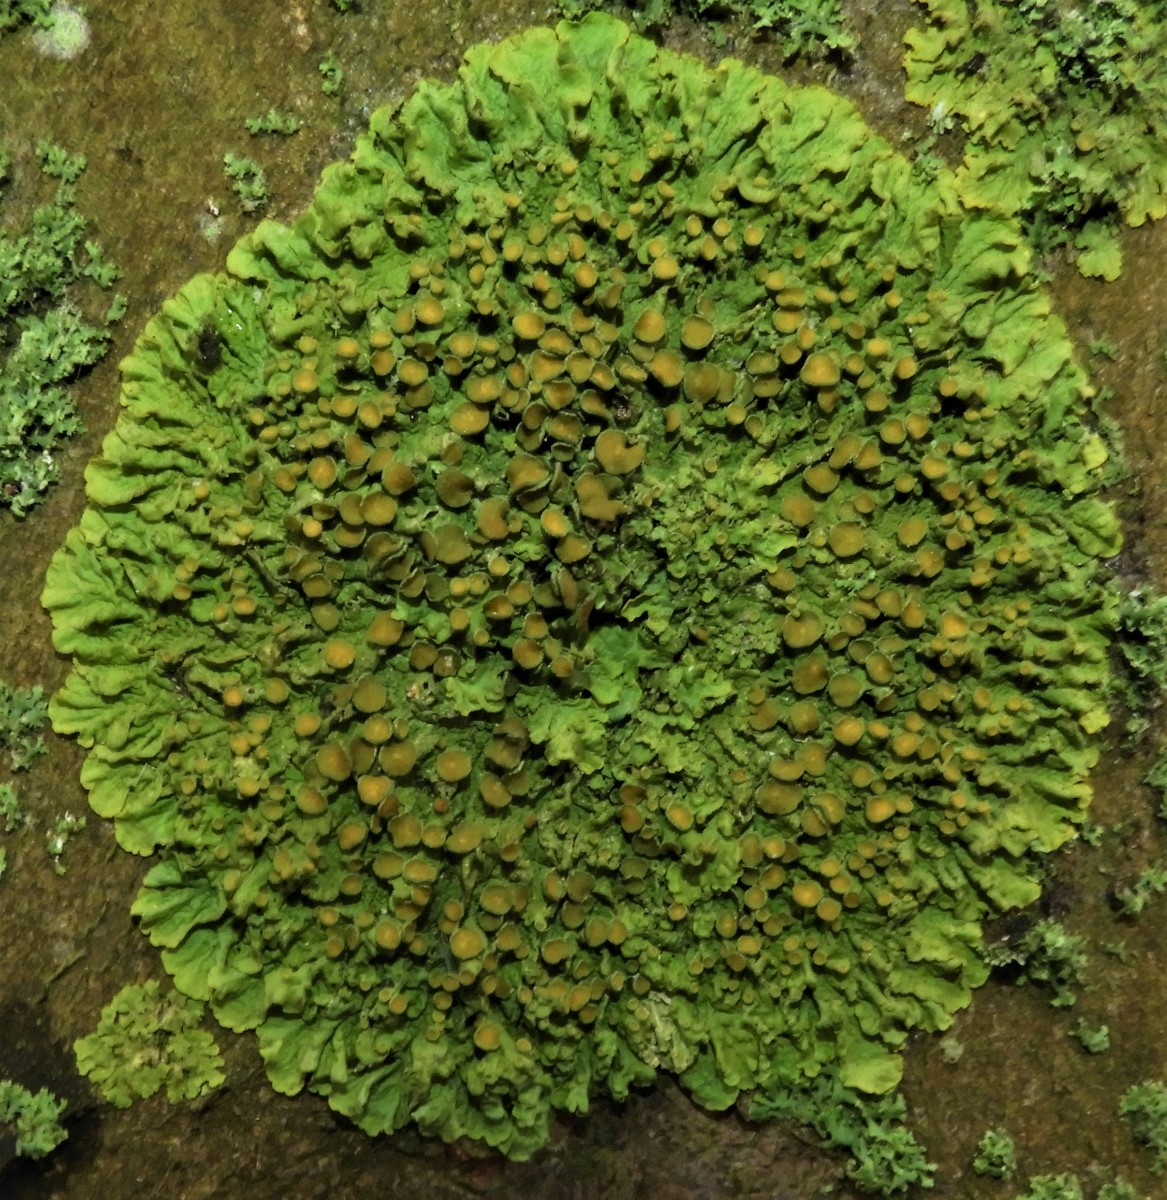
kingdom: Fungi
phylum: Ascomycota
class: Lecanoromycetes
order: Teloschistales
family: Teloschistaceae
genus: Xanthoria
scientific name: Xanthoria parietina
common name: almindelig væggelav
